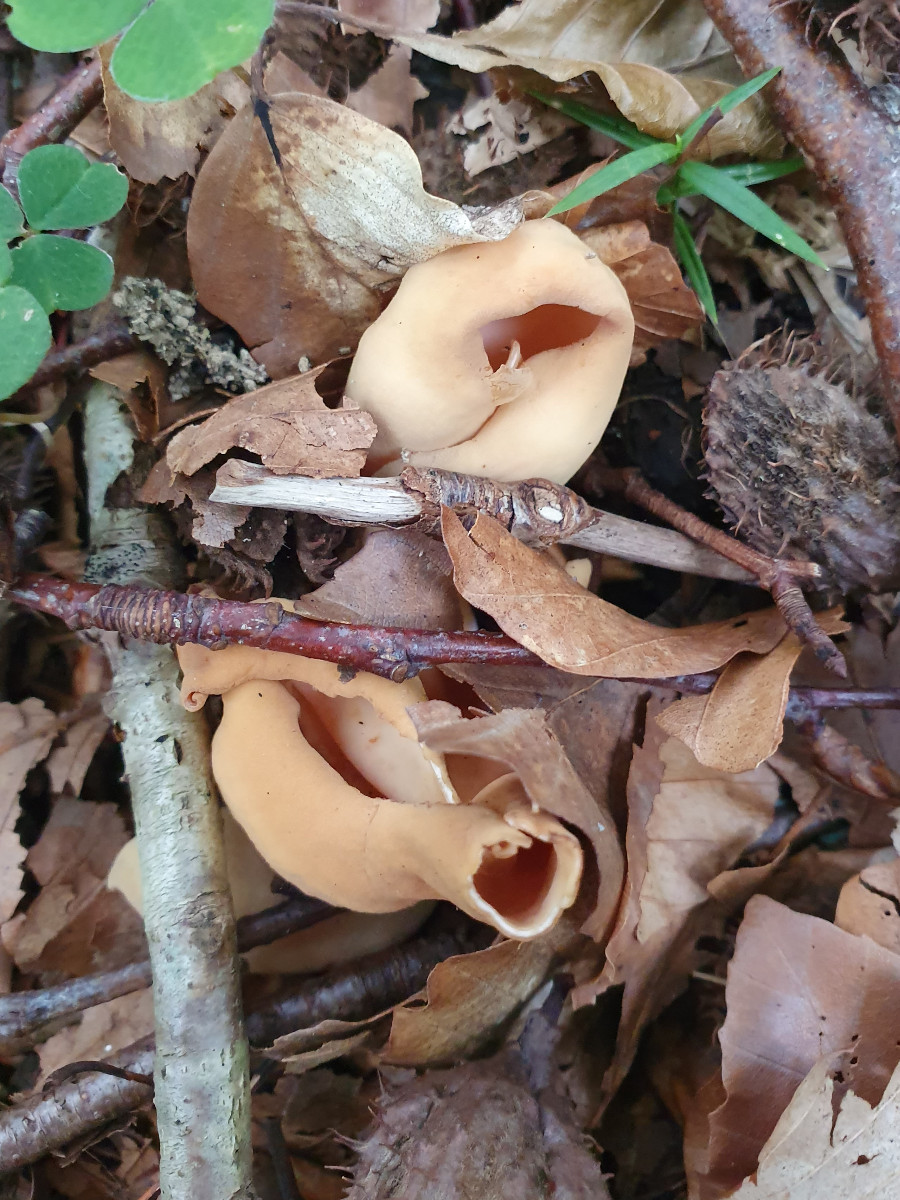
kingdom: Fungi
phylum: Ascomycota
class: Pezizomycetes
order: Pezizales
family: Otideaceae
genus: Otidea
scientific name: Otidea onotica
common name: æsel-ørebæger
